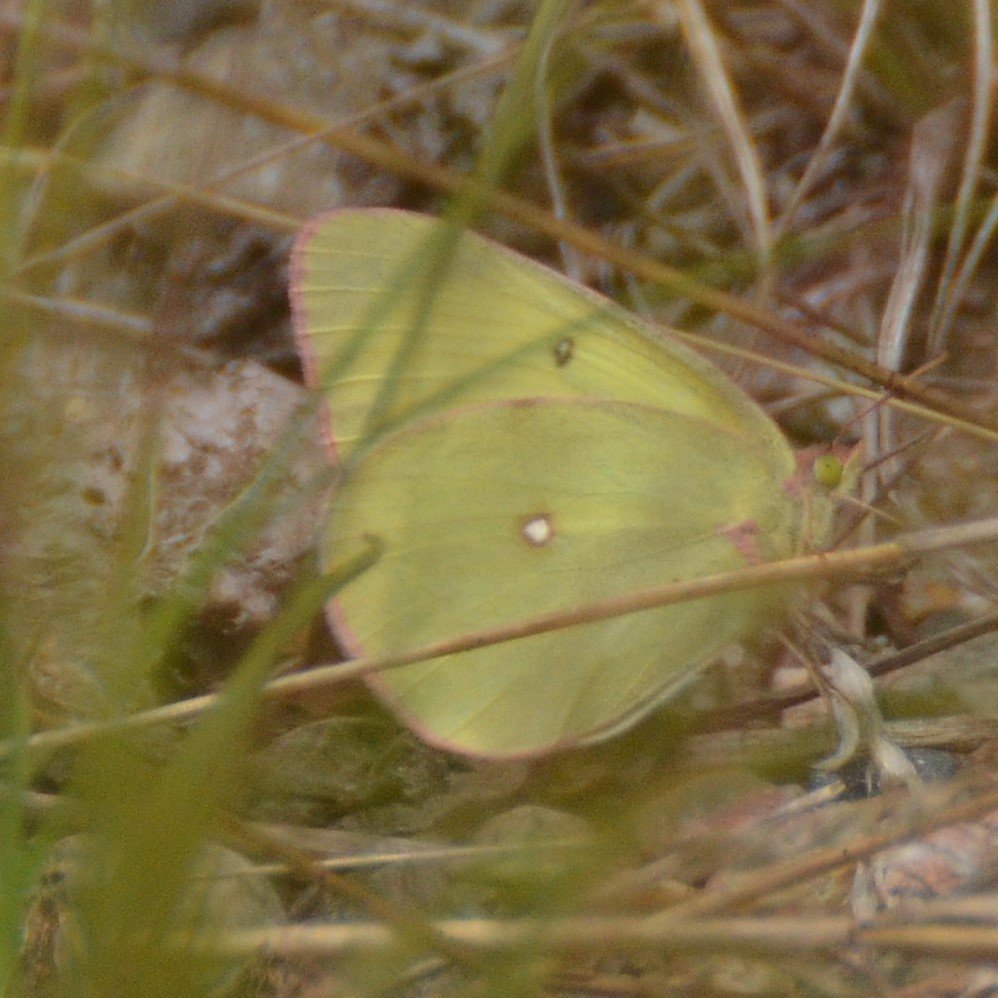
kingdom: Animalia
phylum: Arthropoda
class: Insecta
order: Lepidoptera
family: Pieridae
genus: Colias
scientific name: Colias interior
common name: Pink-edged Sulphur
